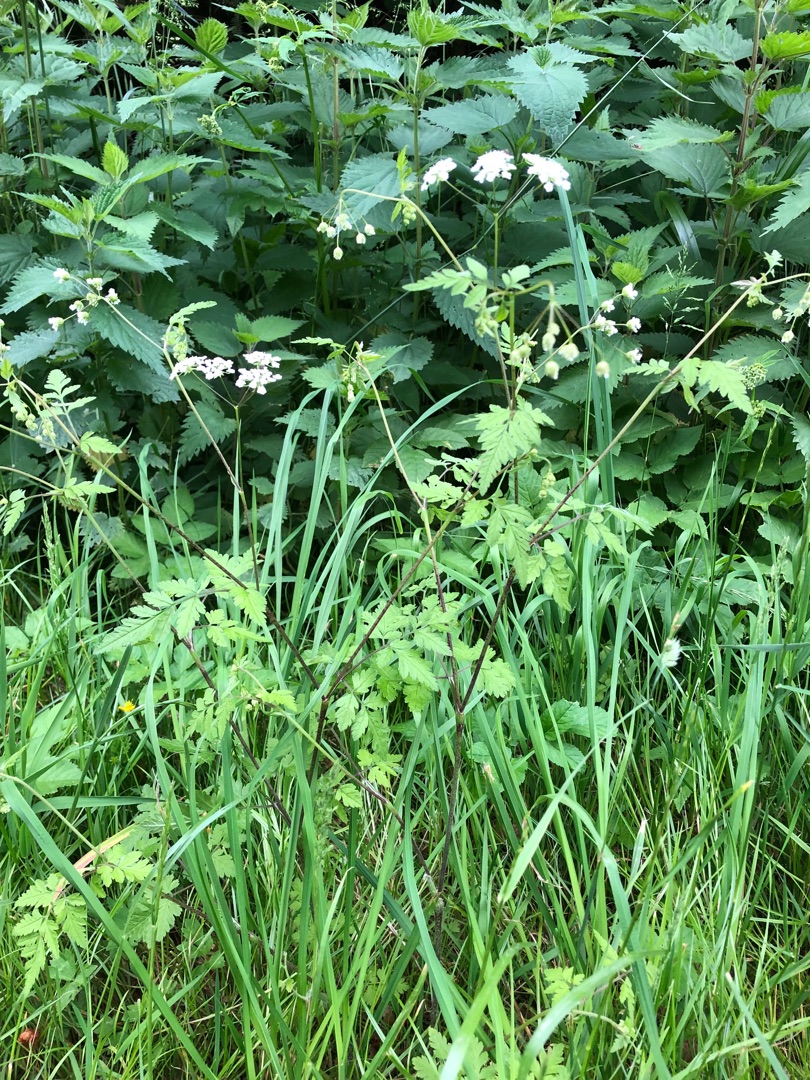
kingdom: Plantae
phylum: Tracheophyta
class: Magnoliopsida
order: Apiales
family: Apiaceae
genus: Chaerophyllum
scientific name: Chaerophyllum temulum
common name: Almindelig hulsvøb
